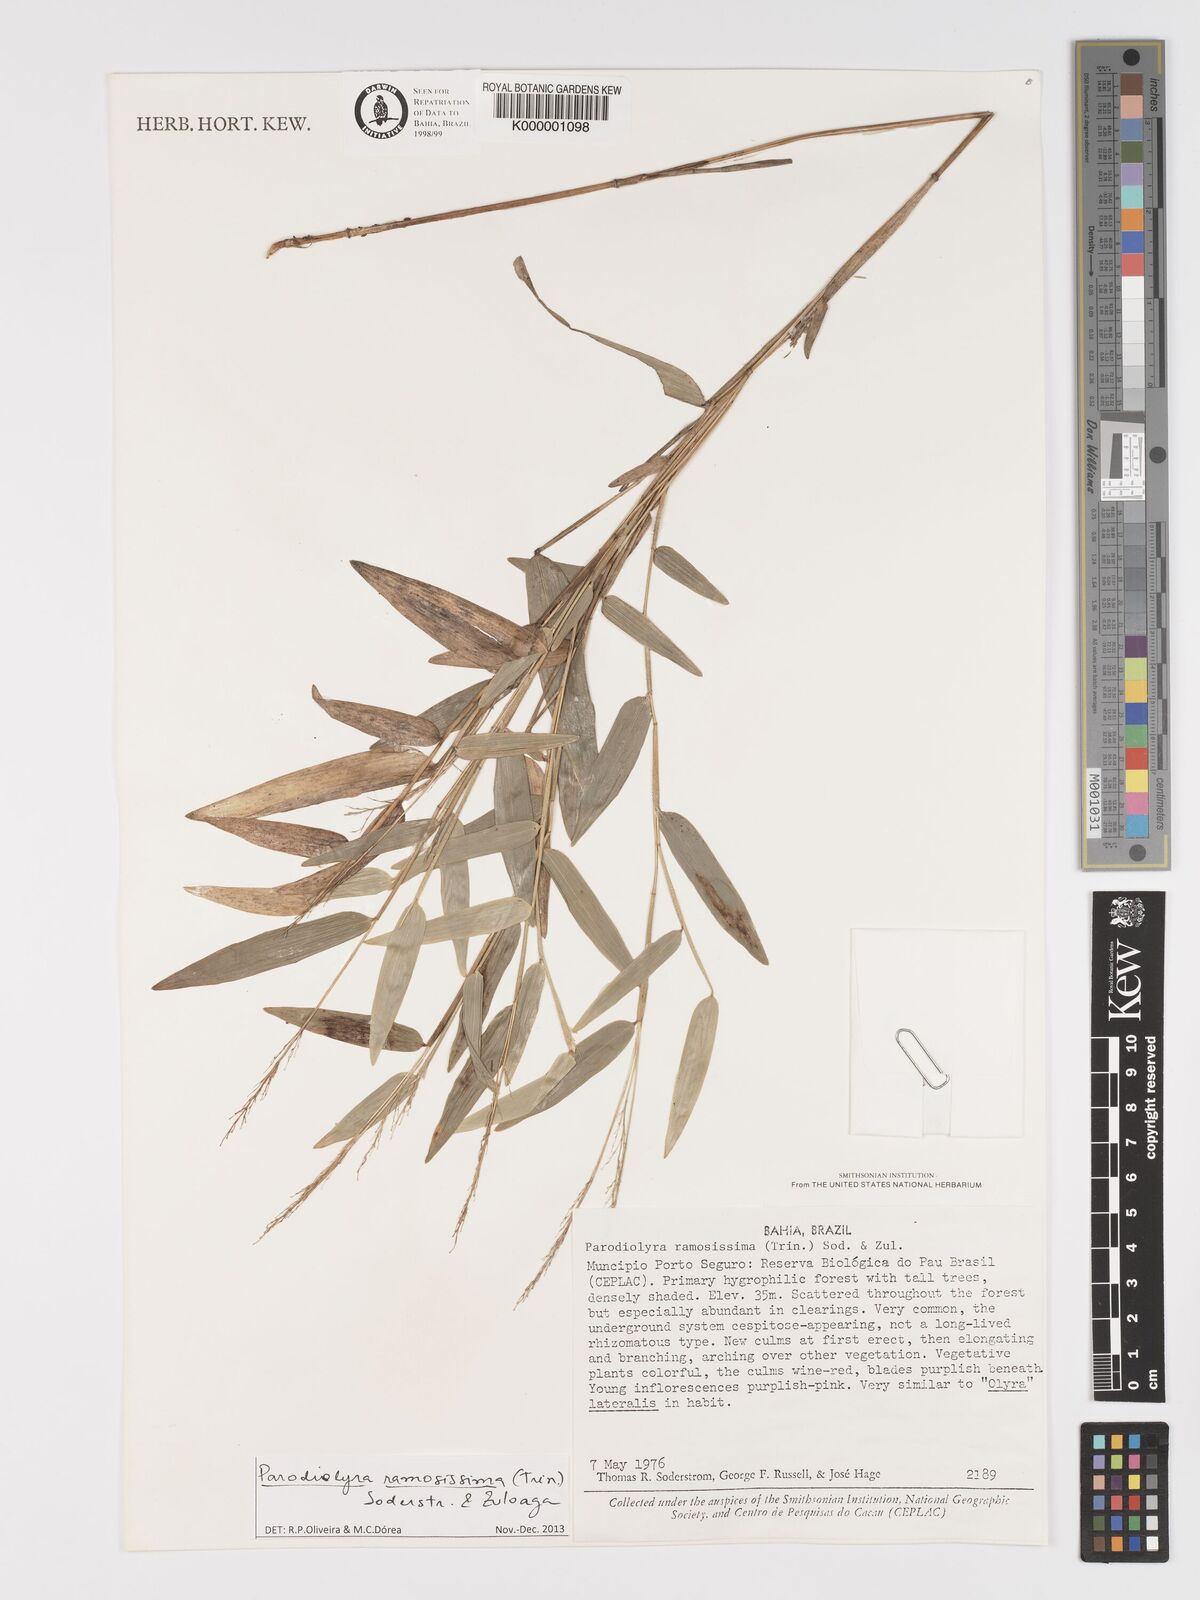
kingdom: Plantae
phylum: Tracheophyta
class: Liliopsida
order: Poales
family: Poaceae
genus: Parodiolyra
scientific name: Parodiolyra ramosissima
